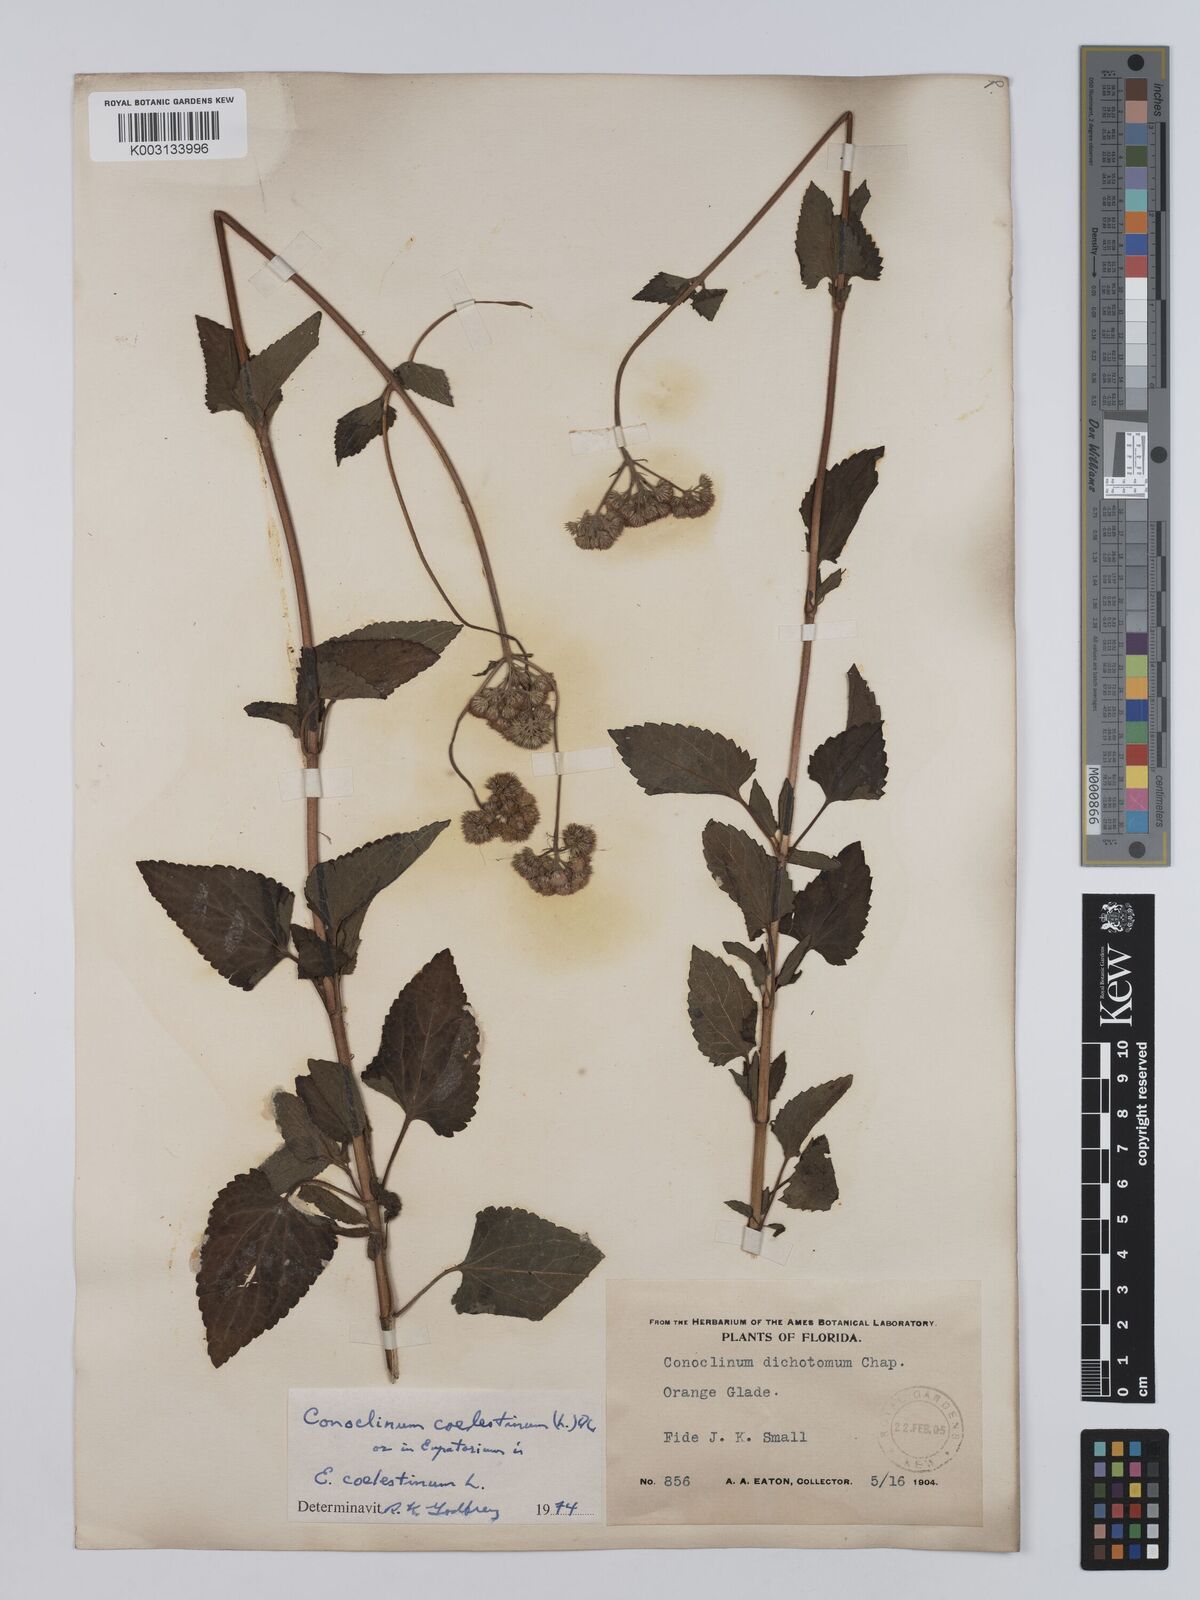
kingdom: Plantae
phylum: Tracheophyta
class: Magnoliopsida
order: Asterales
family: Asteraceae
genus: Conoclinium
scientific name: Conoclinium coelestinum
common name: Blue mistflower
